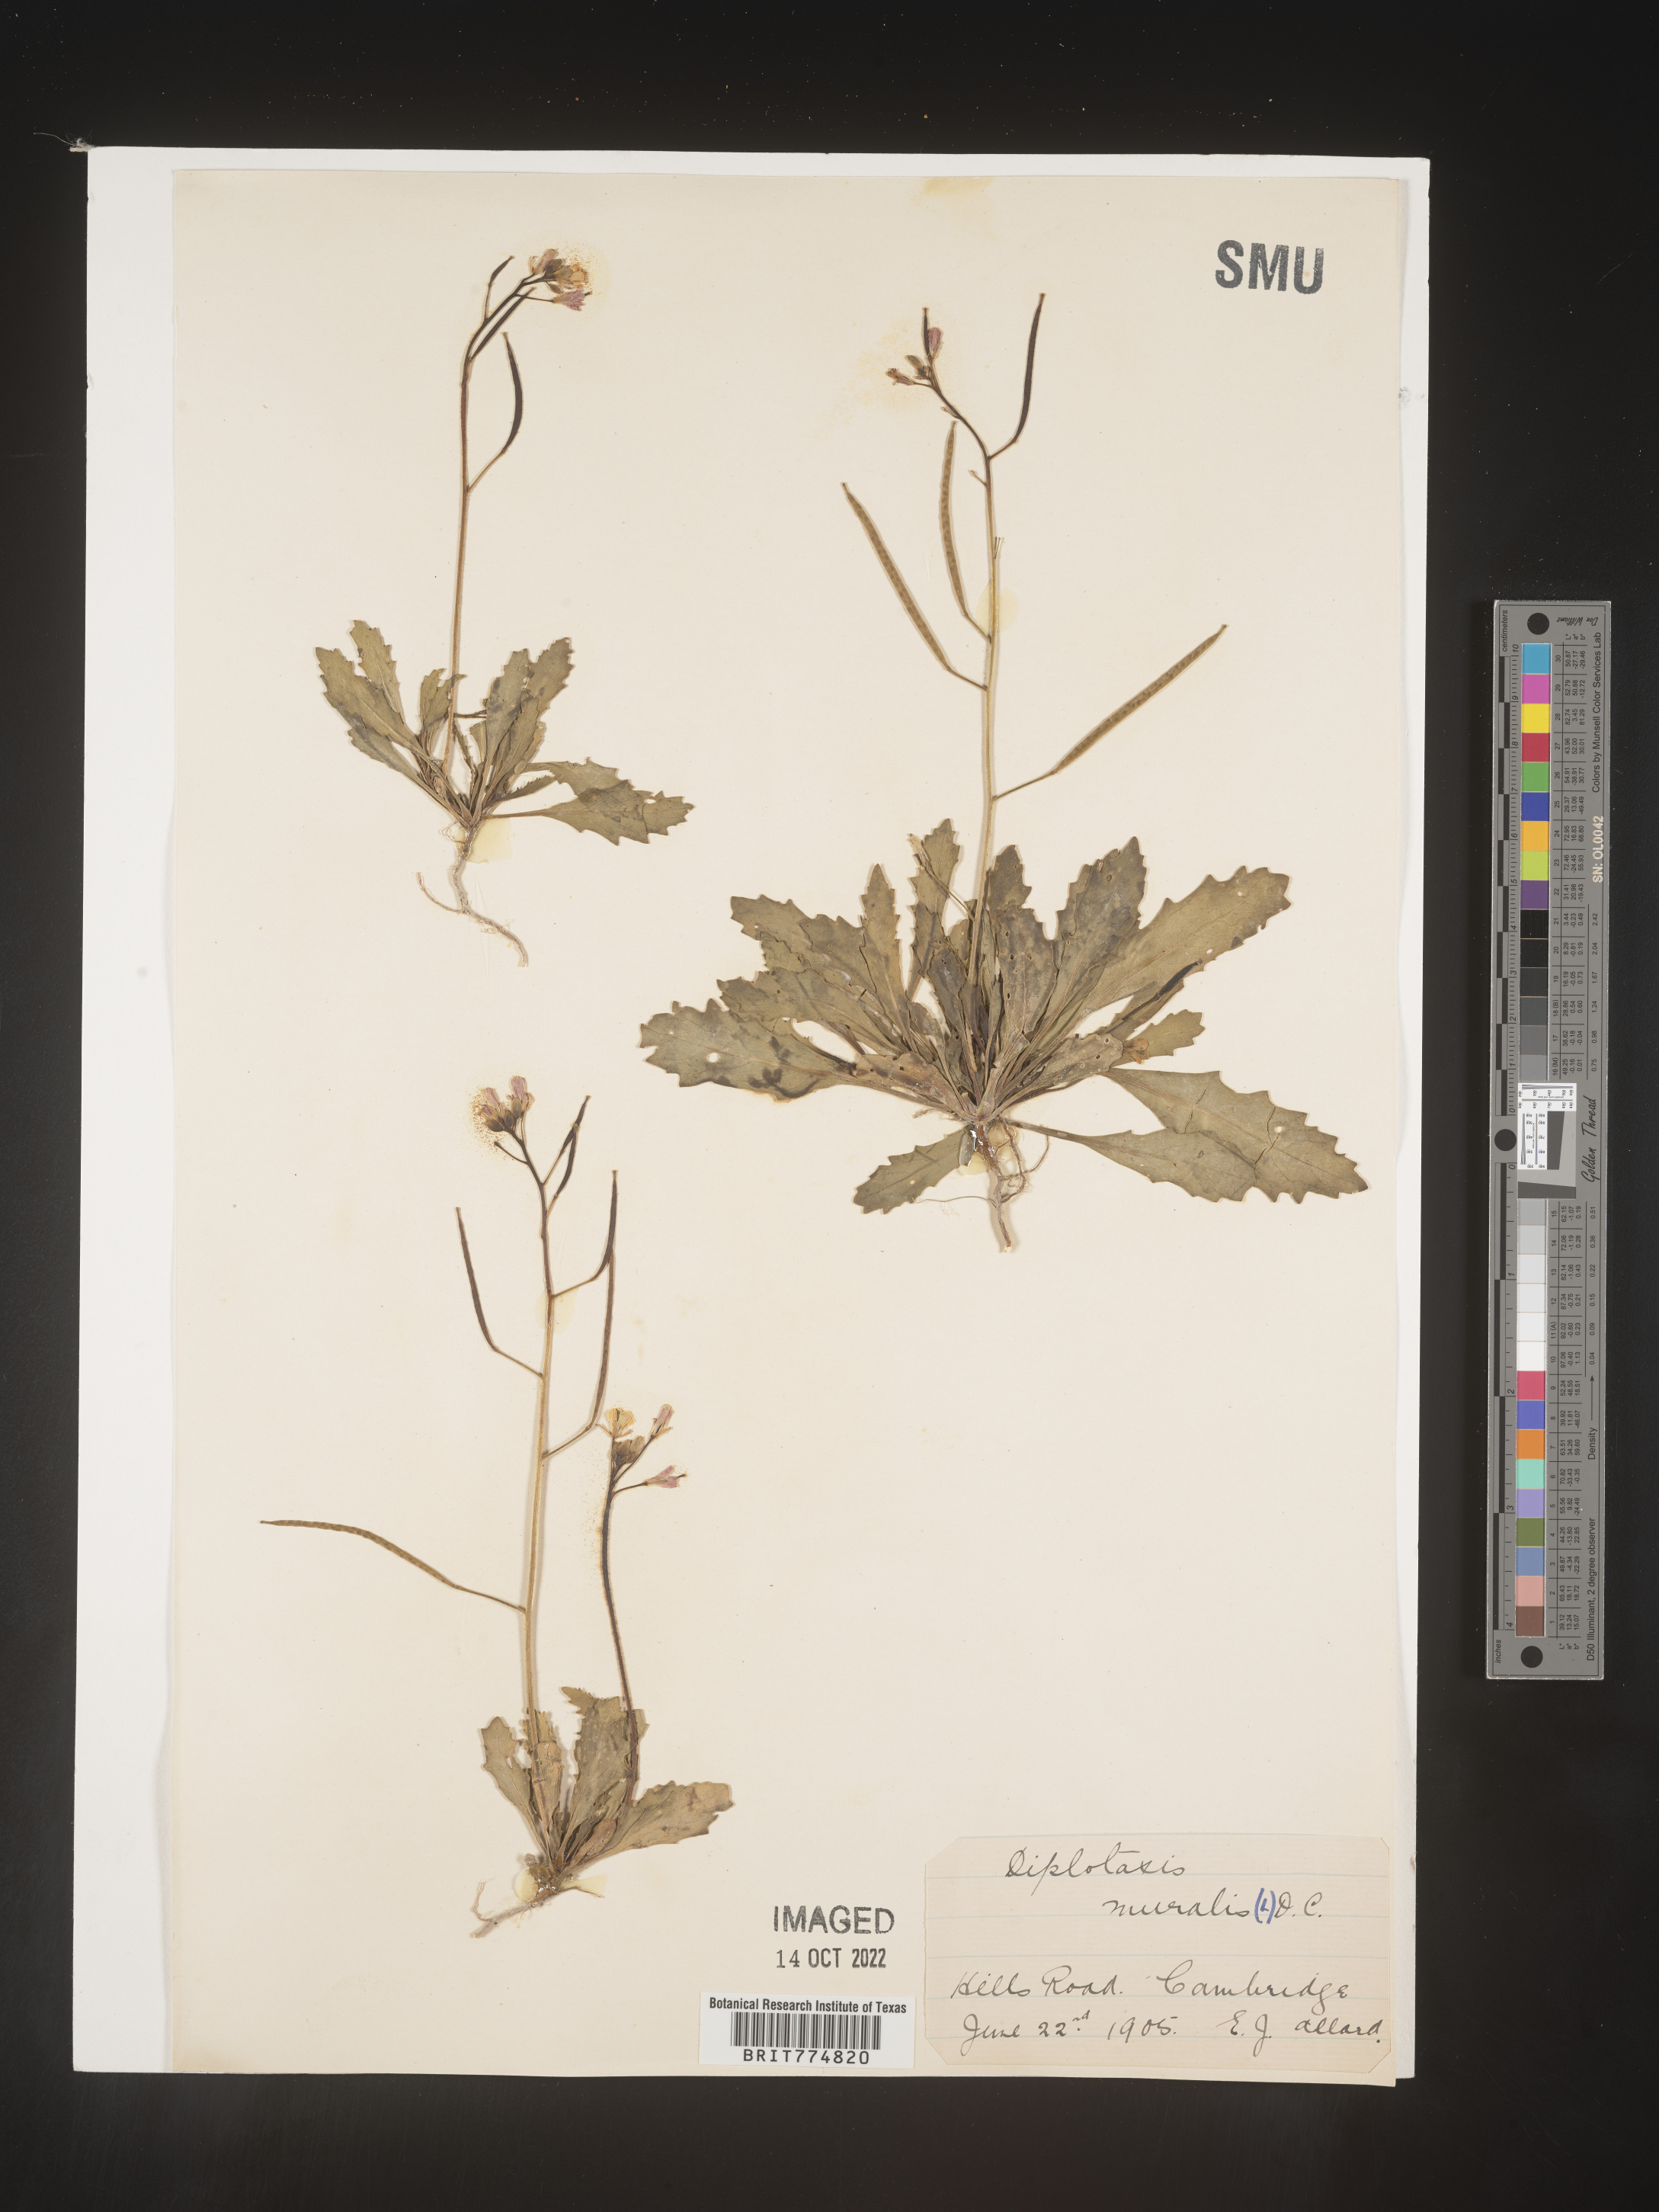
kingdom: Plantae
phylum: Tracheophyta
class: Magnoliopsida
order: Brassicales
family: Brassicaceae
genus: Diplotaxis
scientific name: Diplotaxis
